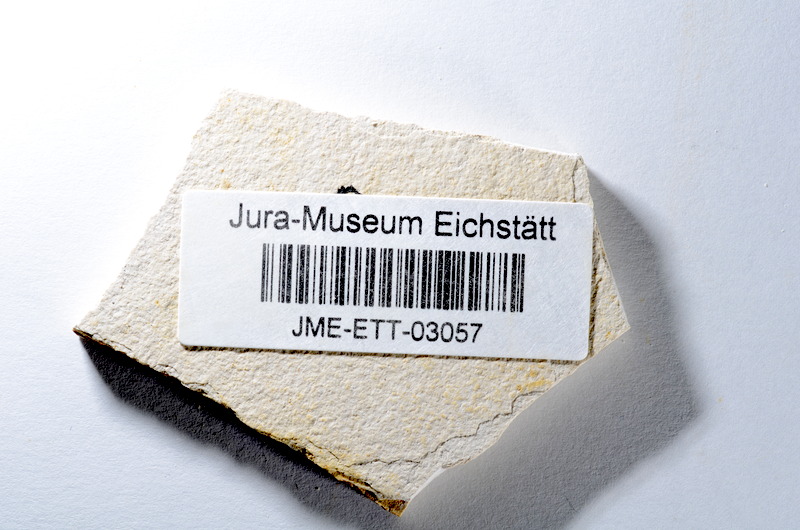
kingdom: Animalia
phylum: Chordata
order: Salmoniformes
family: Orthogonikleithridae
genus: Orthogonikleithrus
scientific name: Orthogonikleithrus hoelli
